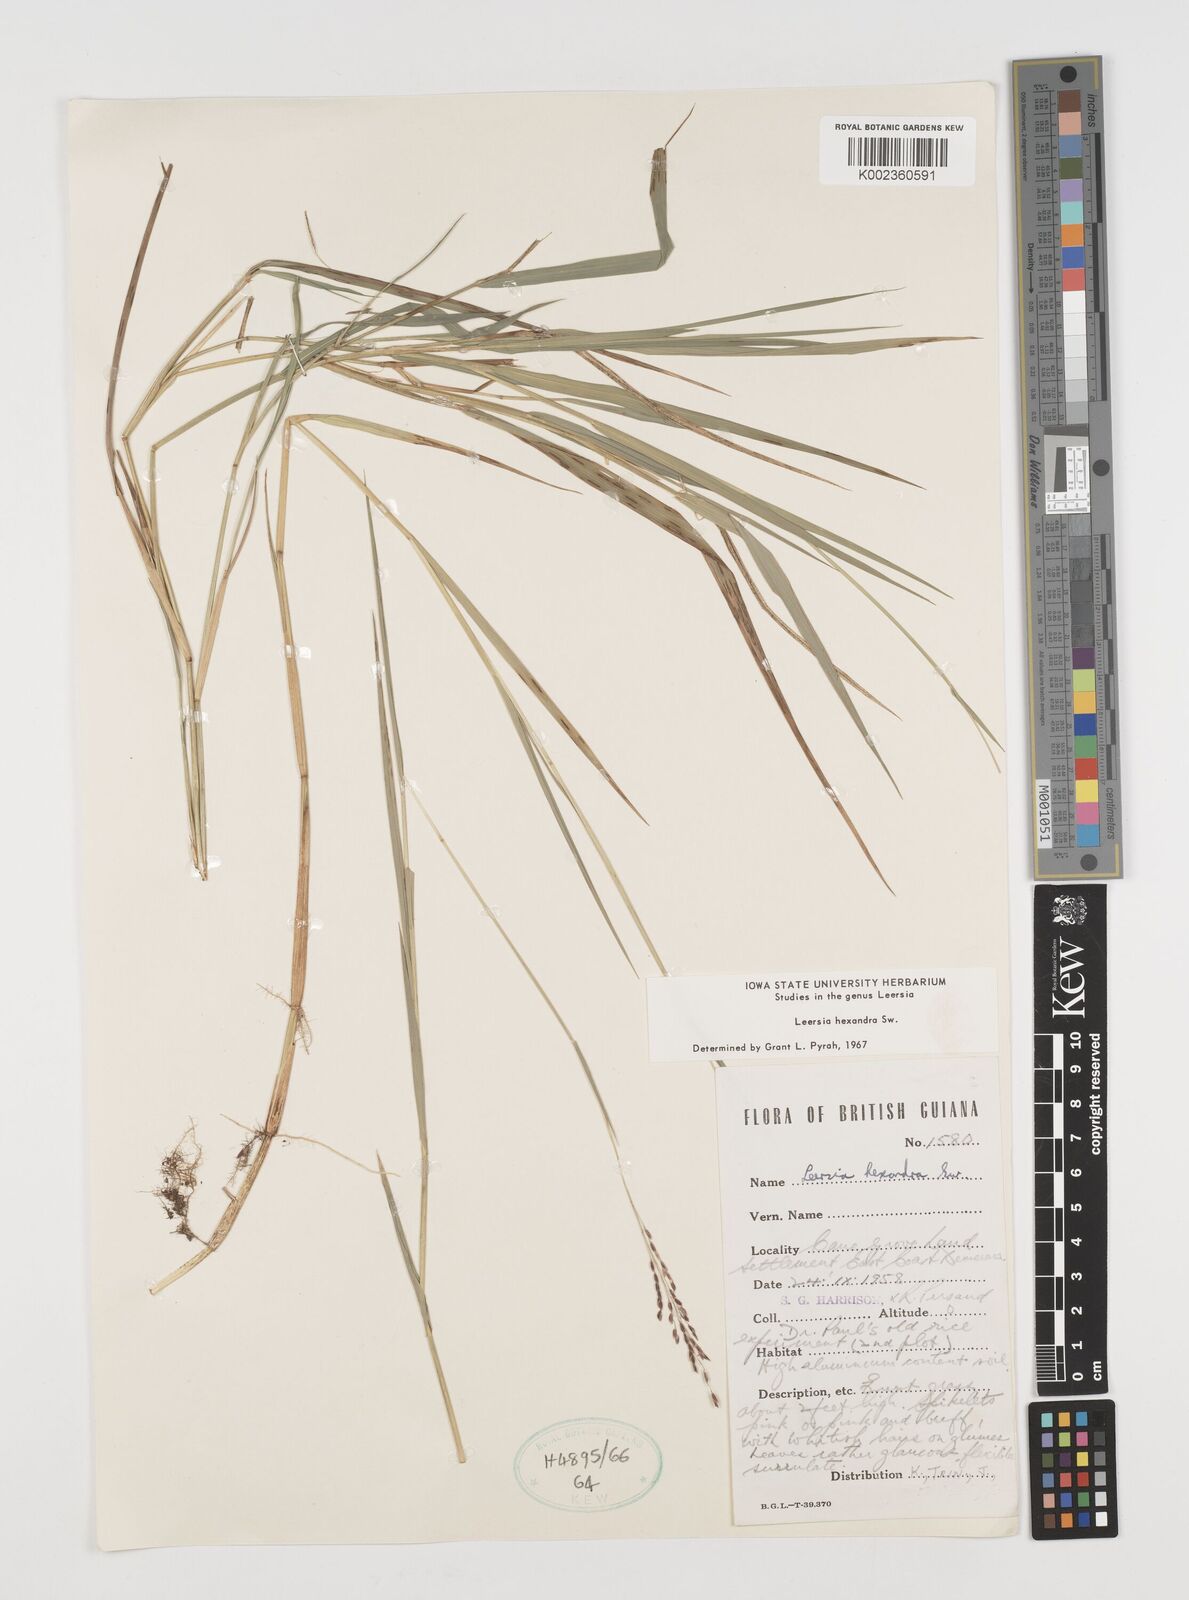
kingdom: Plantae
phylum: Tracheophyta
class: Liliopsida
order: Poales
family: Poaceae
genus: Leersia
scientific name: Leersia hexandra
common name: Southern cut grass
